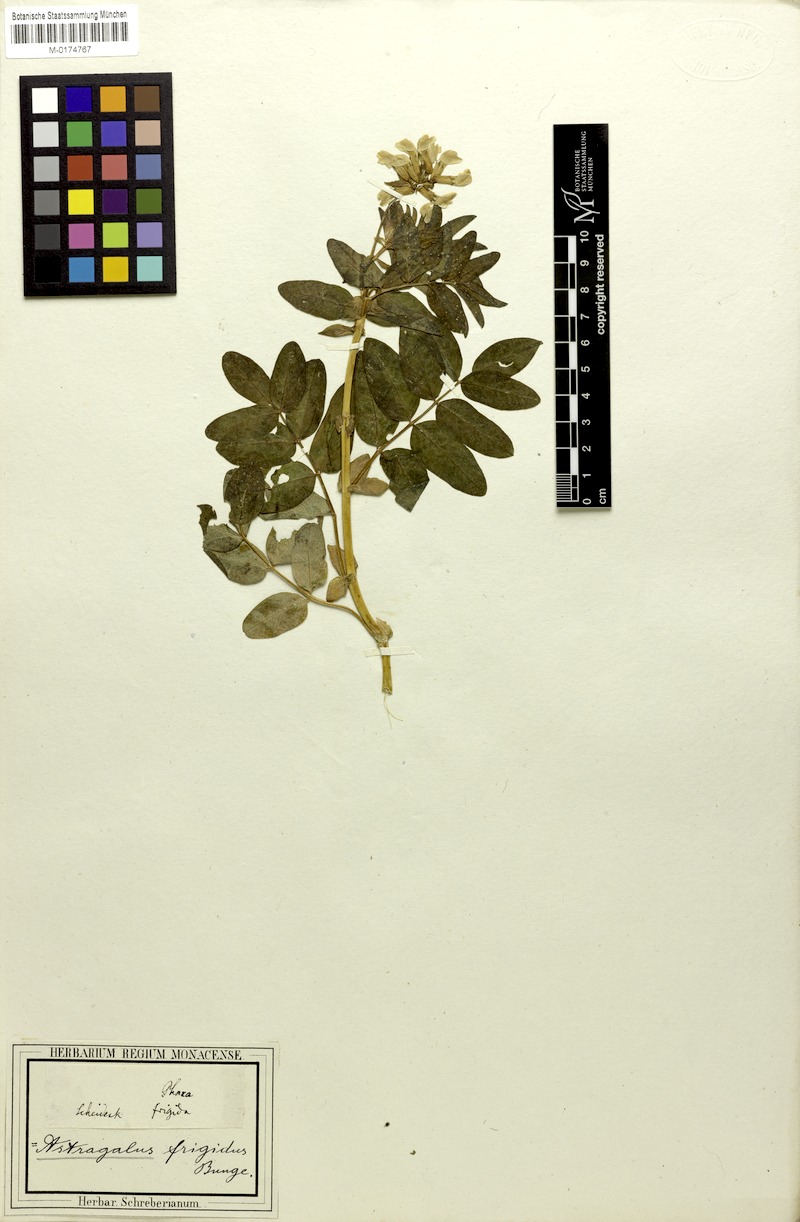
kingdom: Plantae
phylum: Tracheophyta
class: Magnoliopsida
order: Fabales
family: Fabaceae
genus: Astragalus
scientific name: Astragalus frigidus
